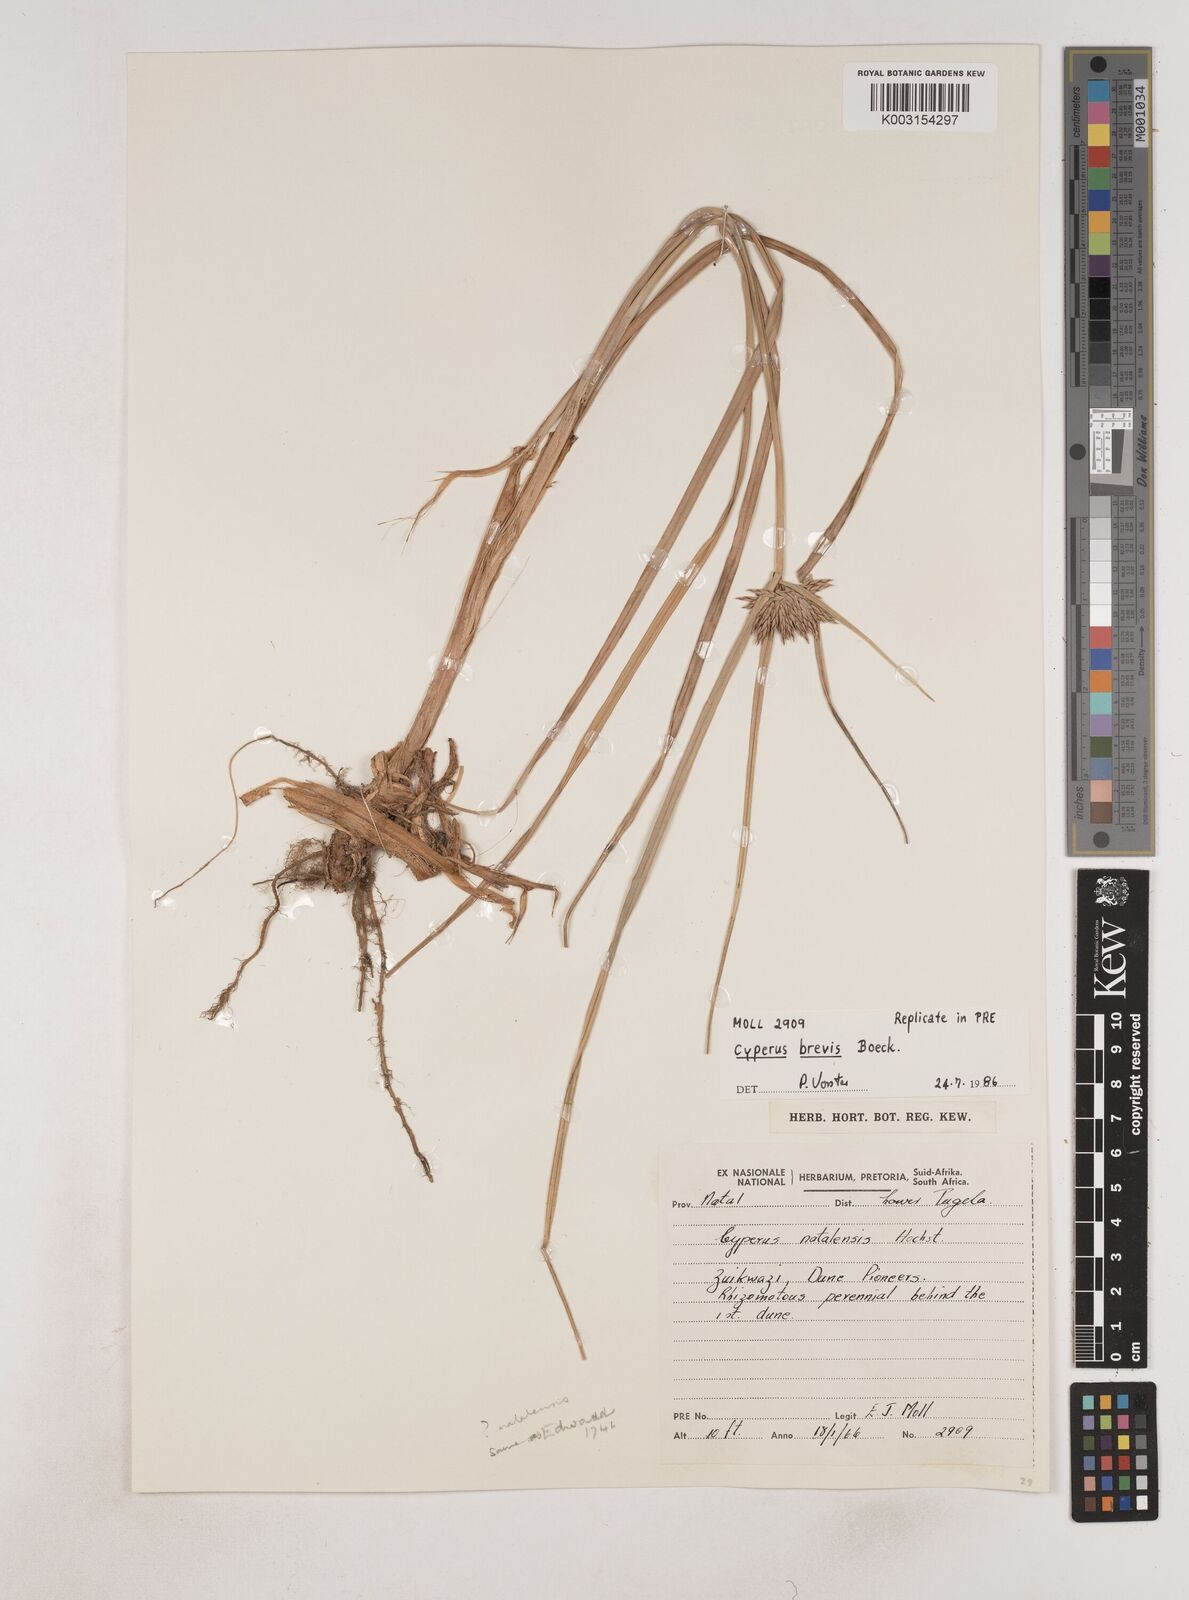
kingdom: Plantae
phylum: Tracheophyta
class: Liliopsida
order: Poales
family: Cyperaceae
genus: Cyperus
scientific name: Cyperus congestus
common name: Dense flat sedge
